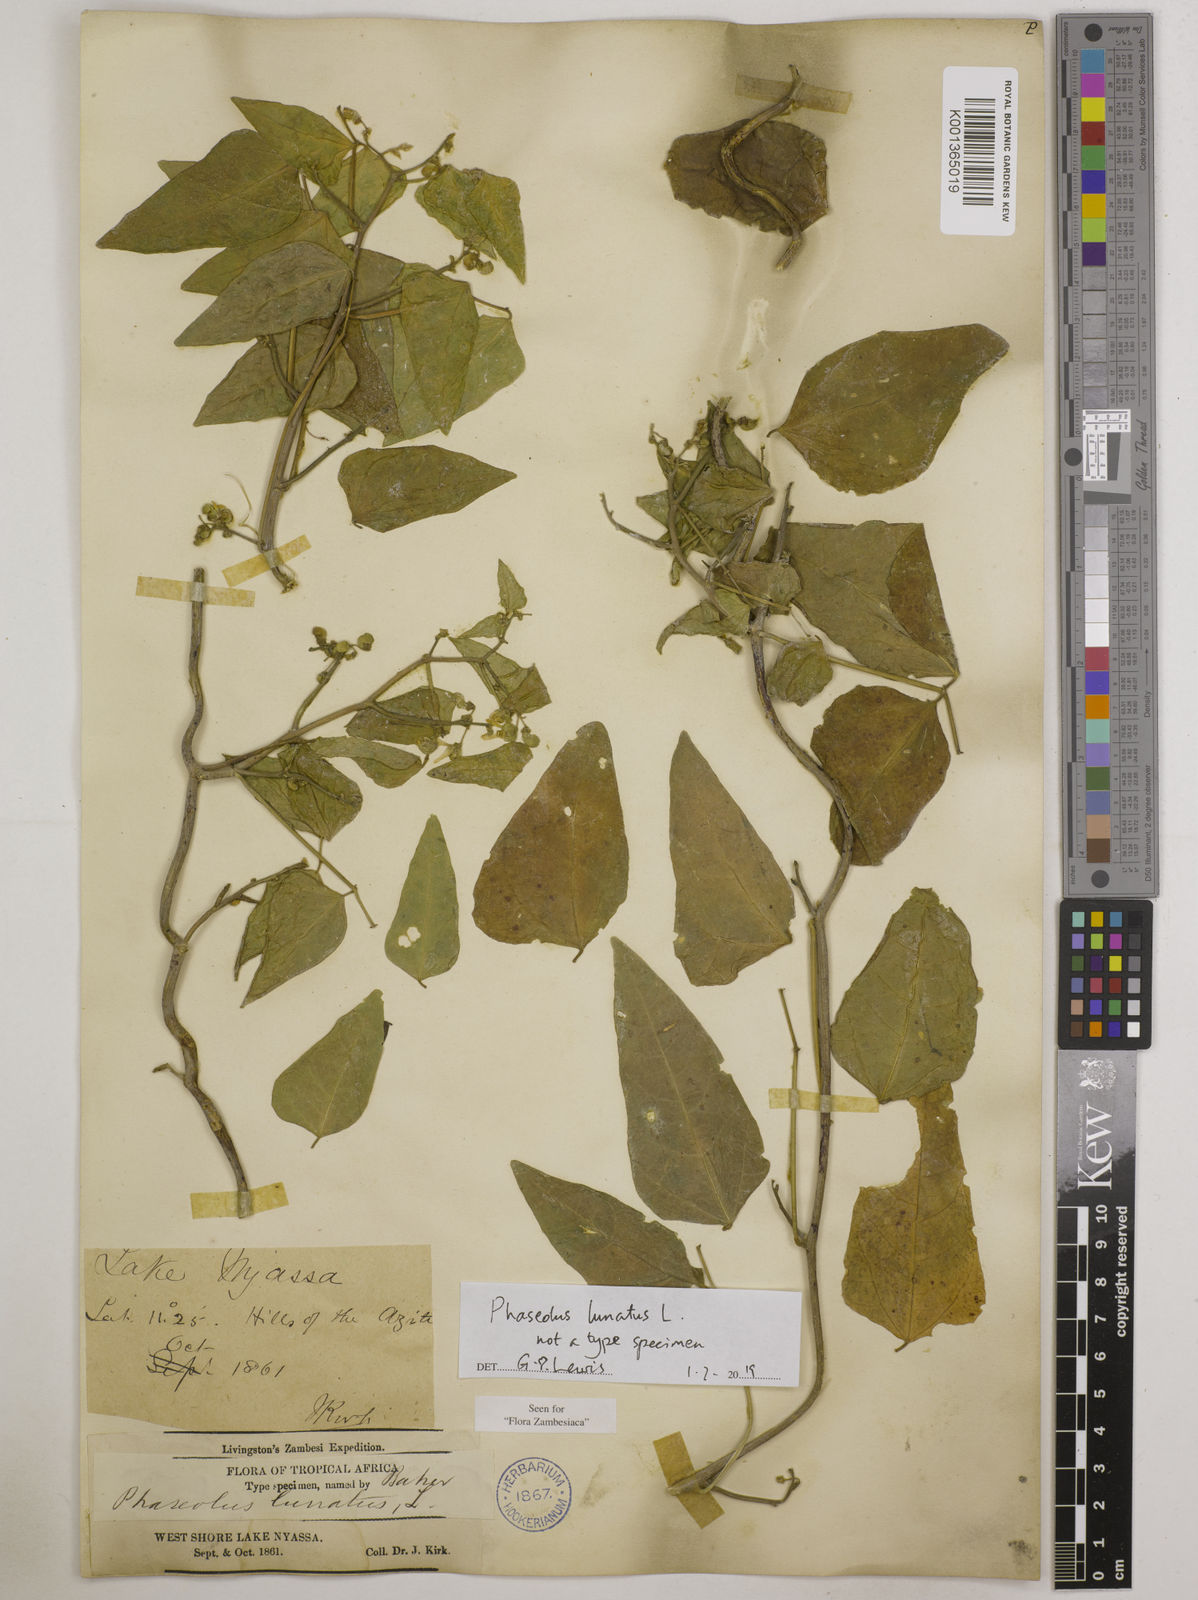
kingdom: Plantae
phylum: Tracheophyta
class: Magnoliopsida
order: Fabales
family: Fabaceae
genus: Phaseolus
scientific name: Phaseolus lunatus
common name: Sieva bean
